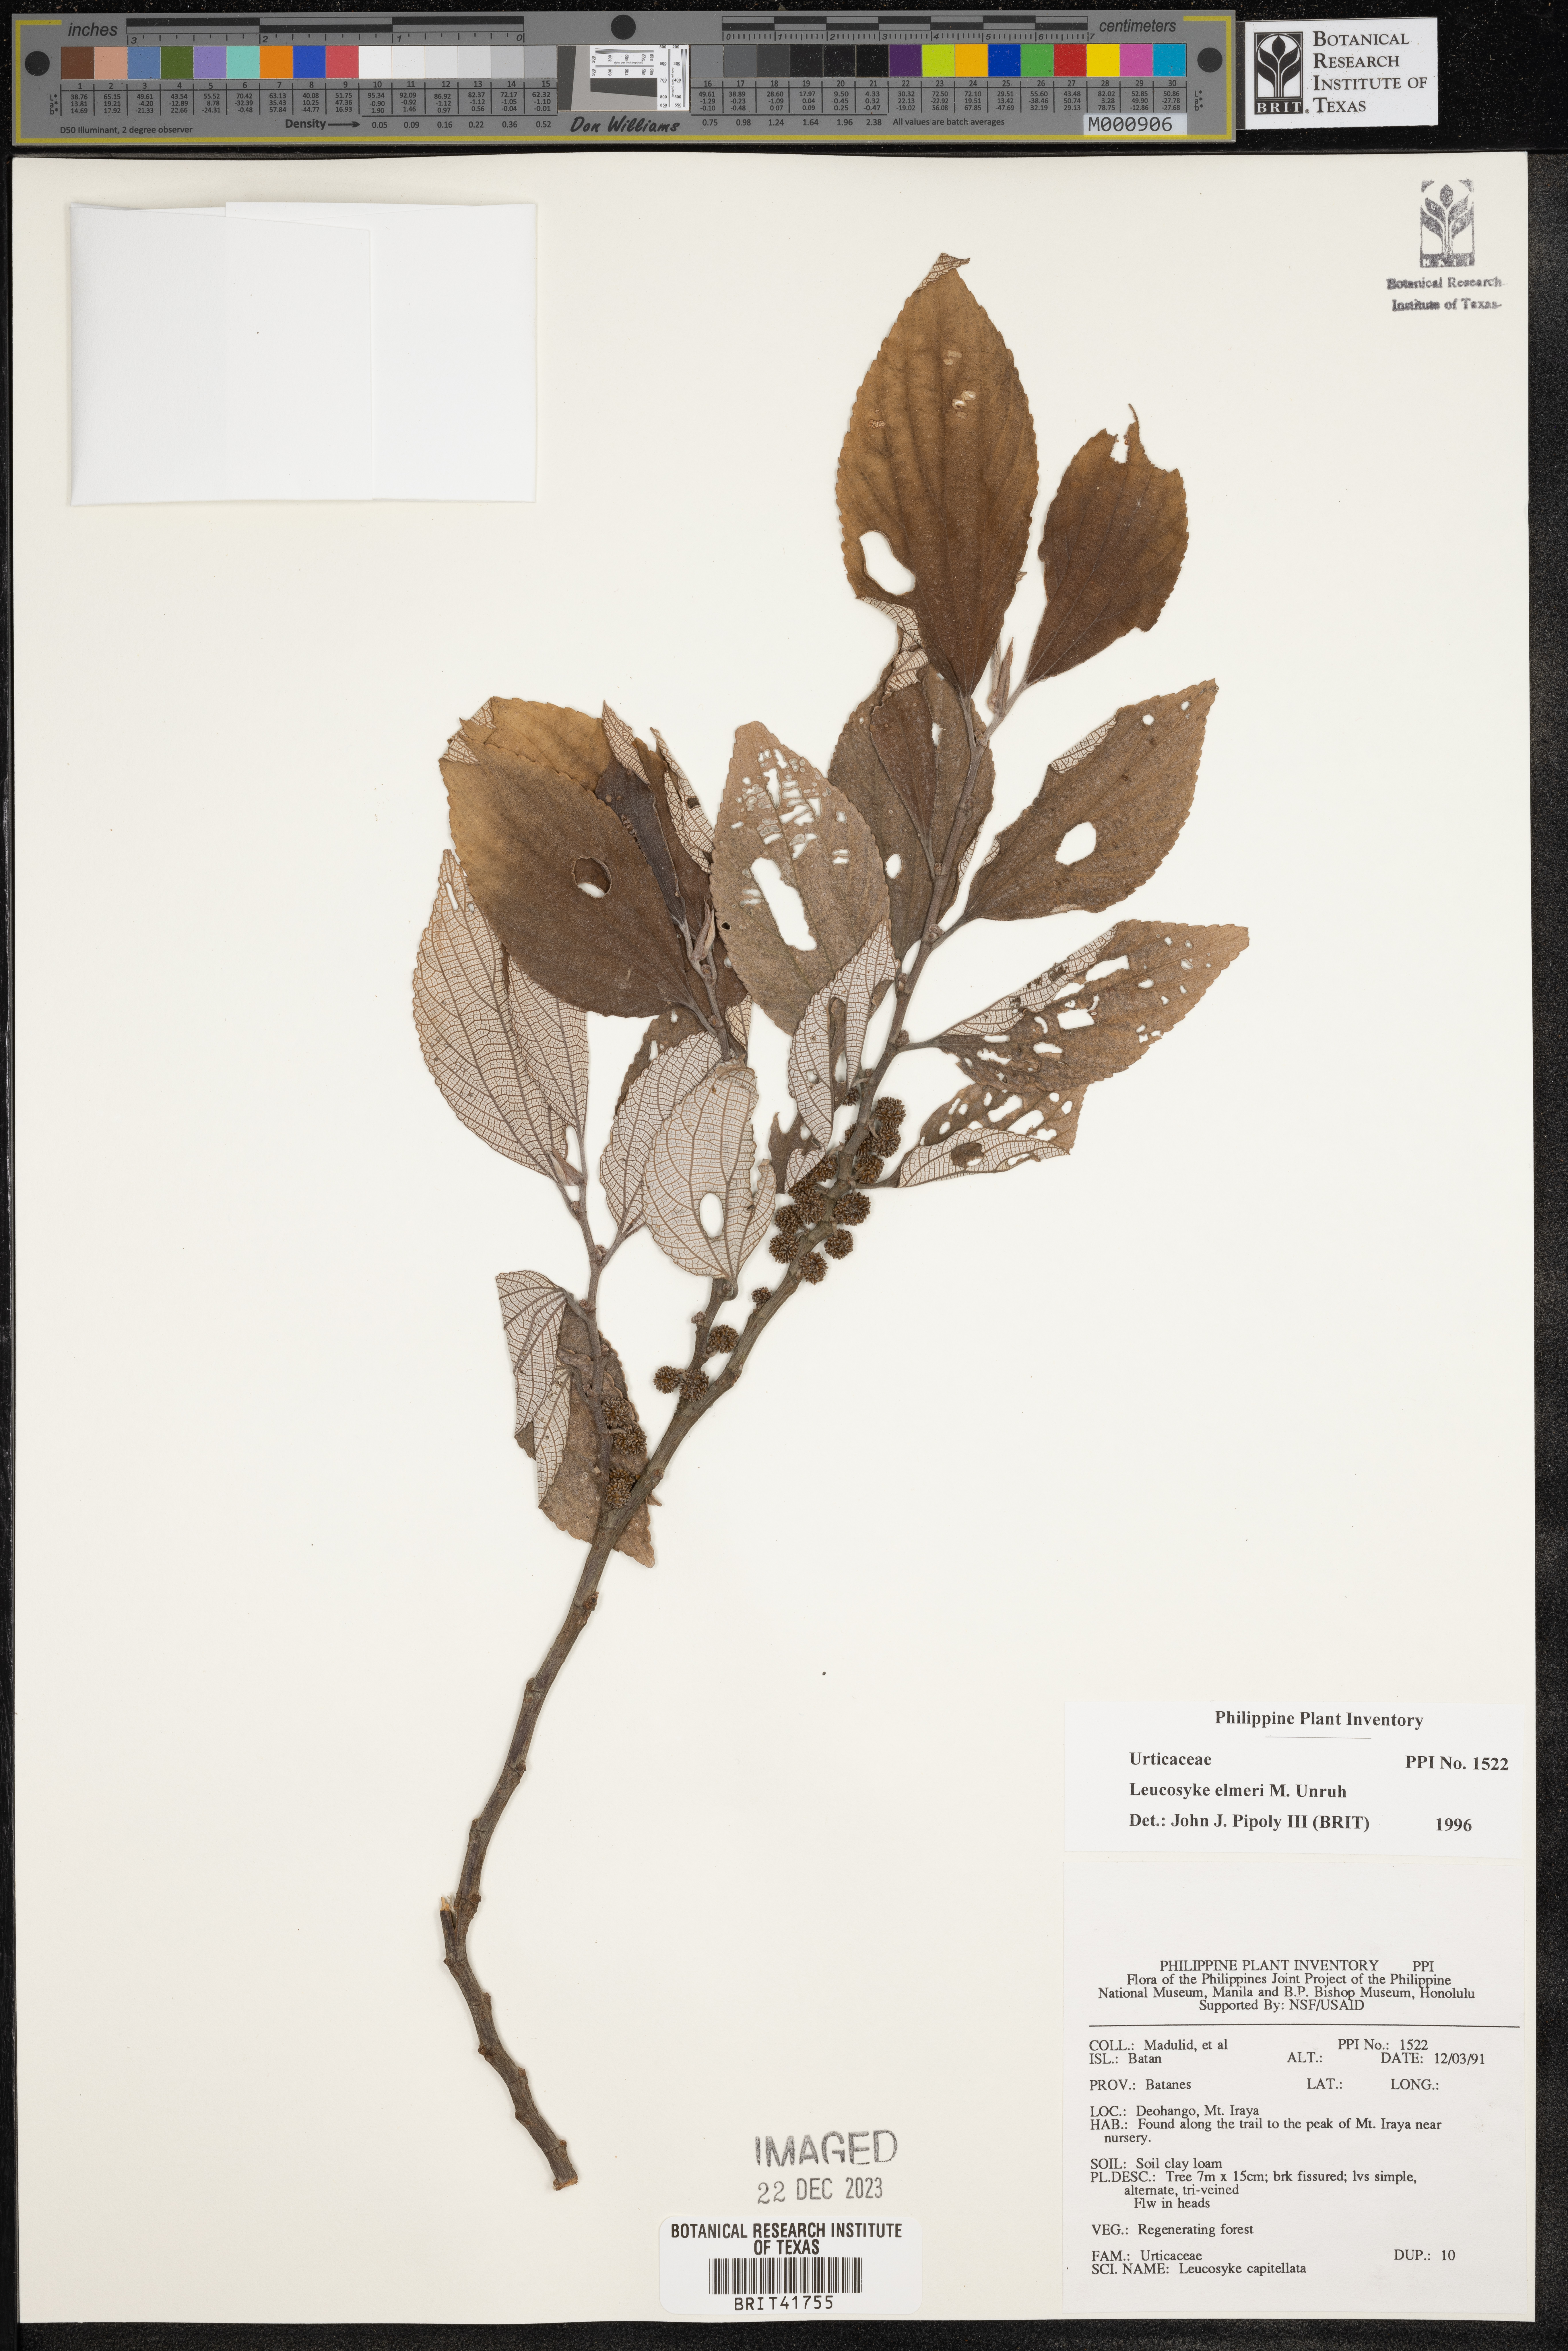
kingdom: Plantae
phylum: Tracheophyta
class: Magnoliopsida
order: Rosales
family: Urticaceae
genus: Leucosyke
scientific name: Leucosyke elmeri
